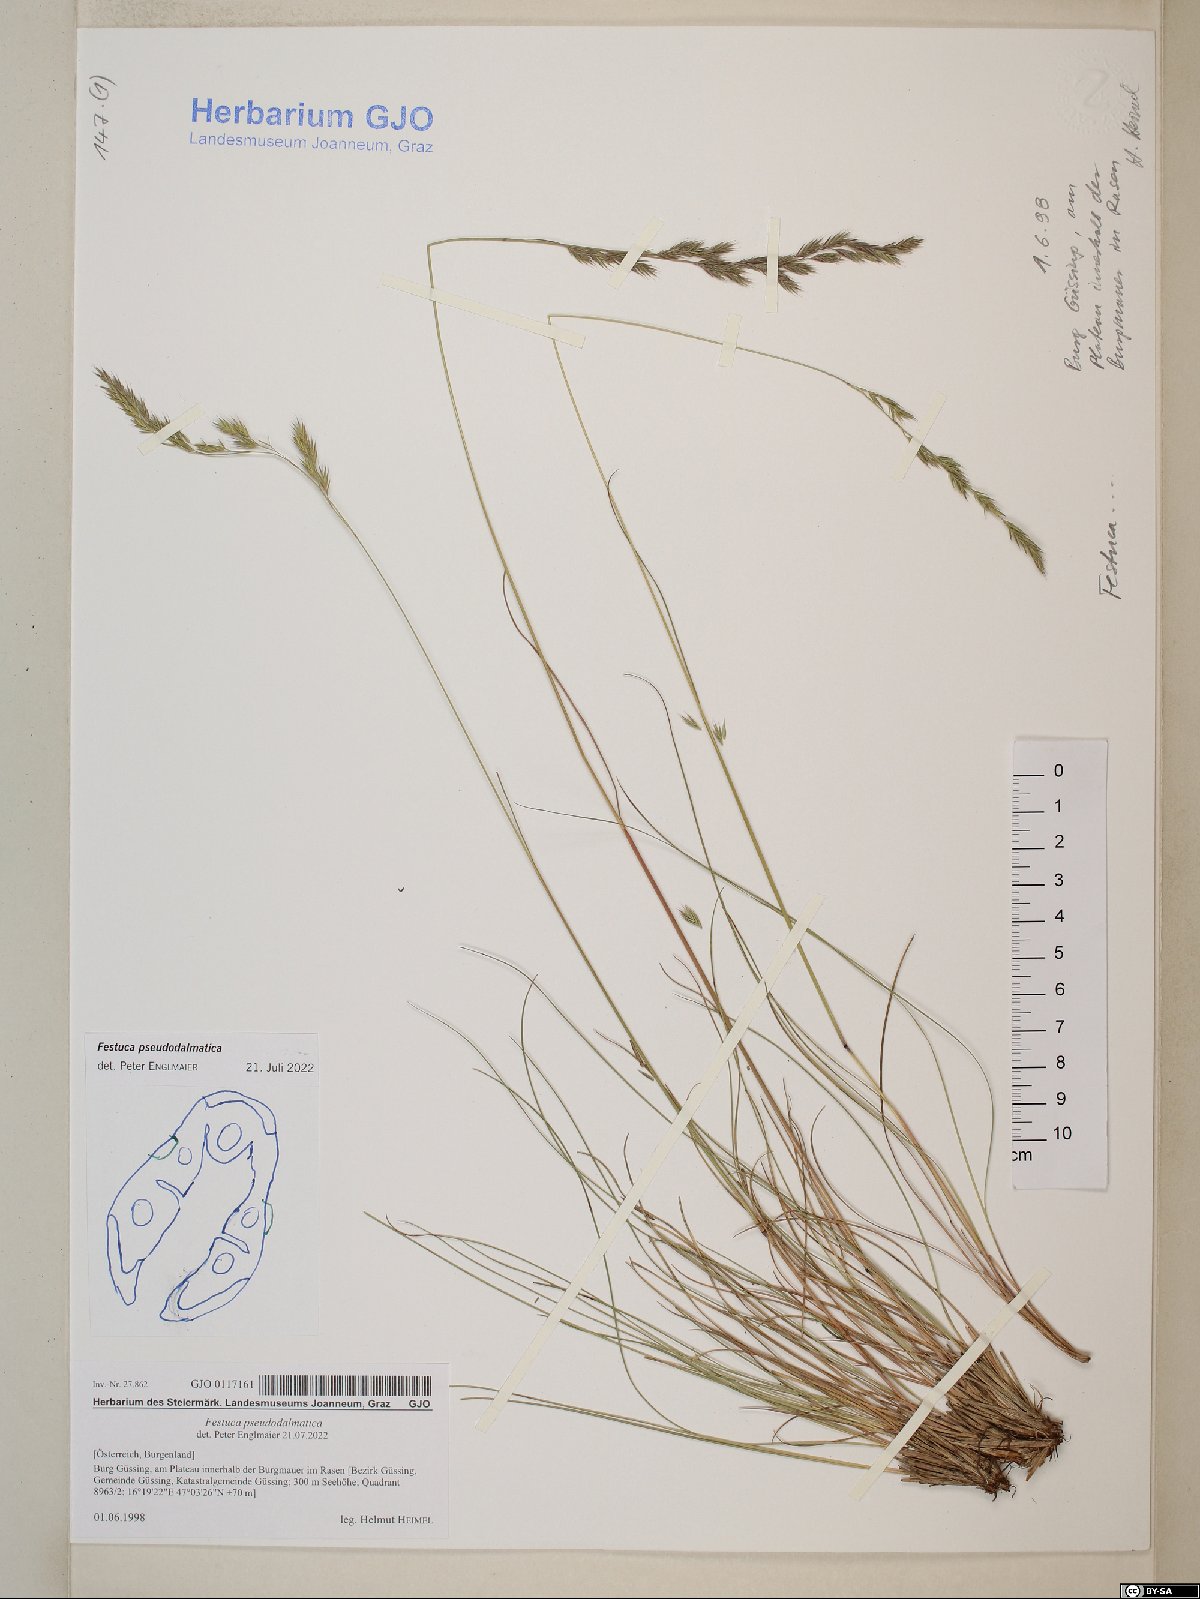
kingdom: Plantae
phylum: Tracheophyta
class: Liliopsida
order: Poales
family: Poaceae
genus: Festuca
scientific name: Festuca pseudodalmatica
